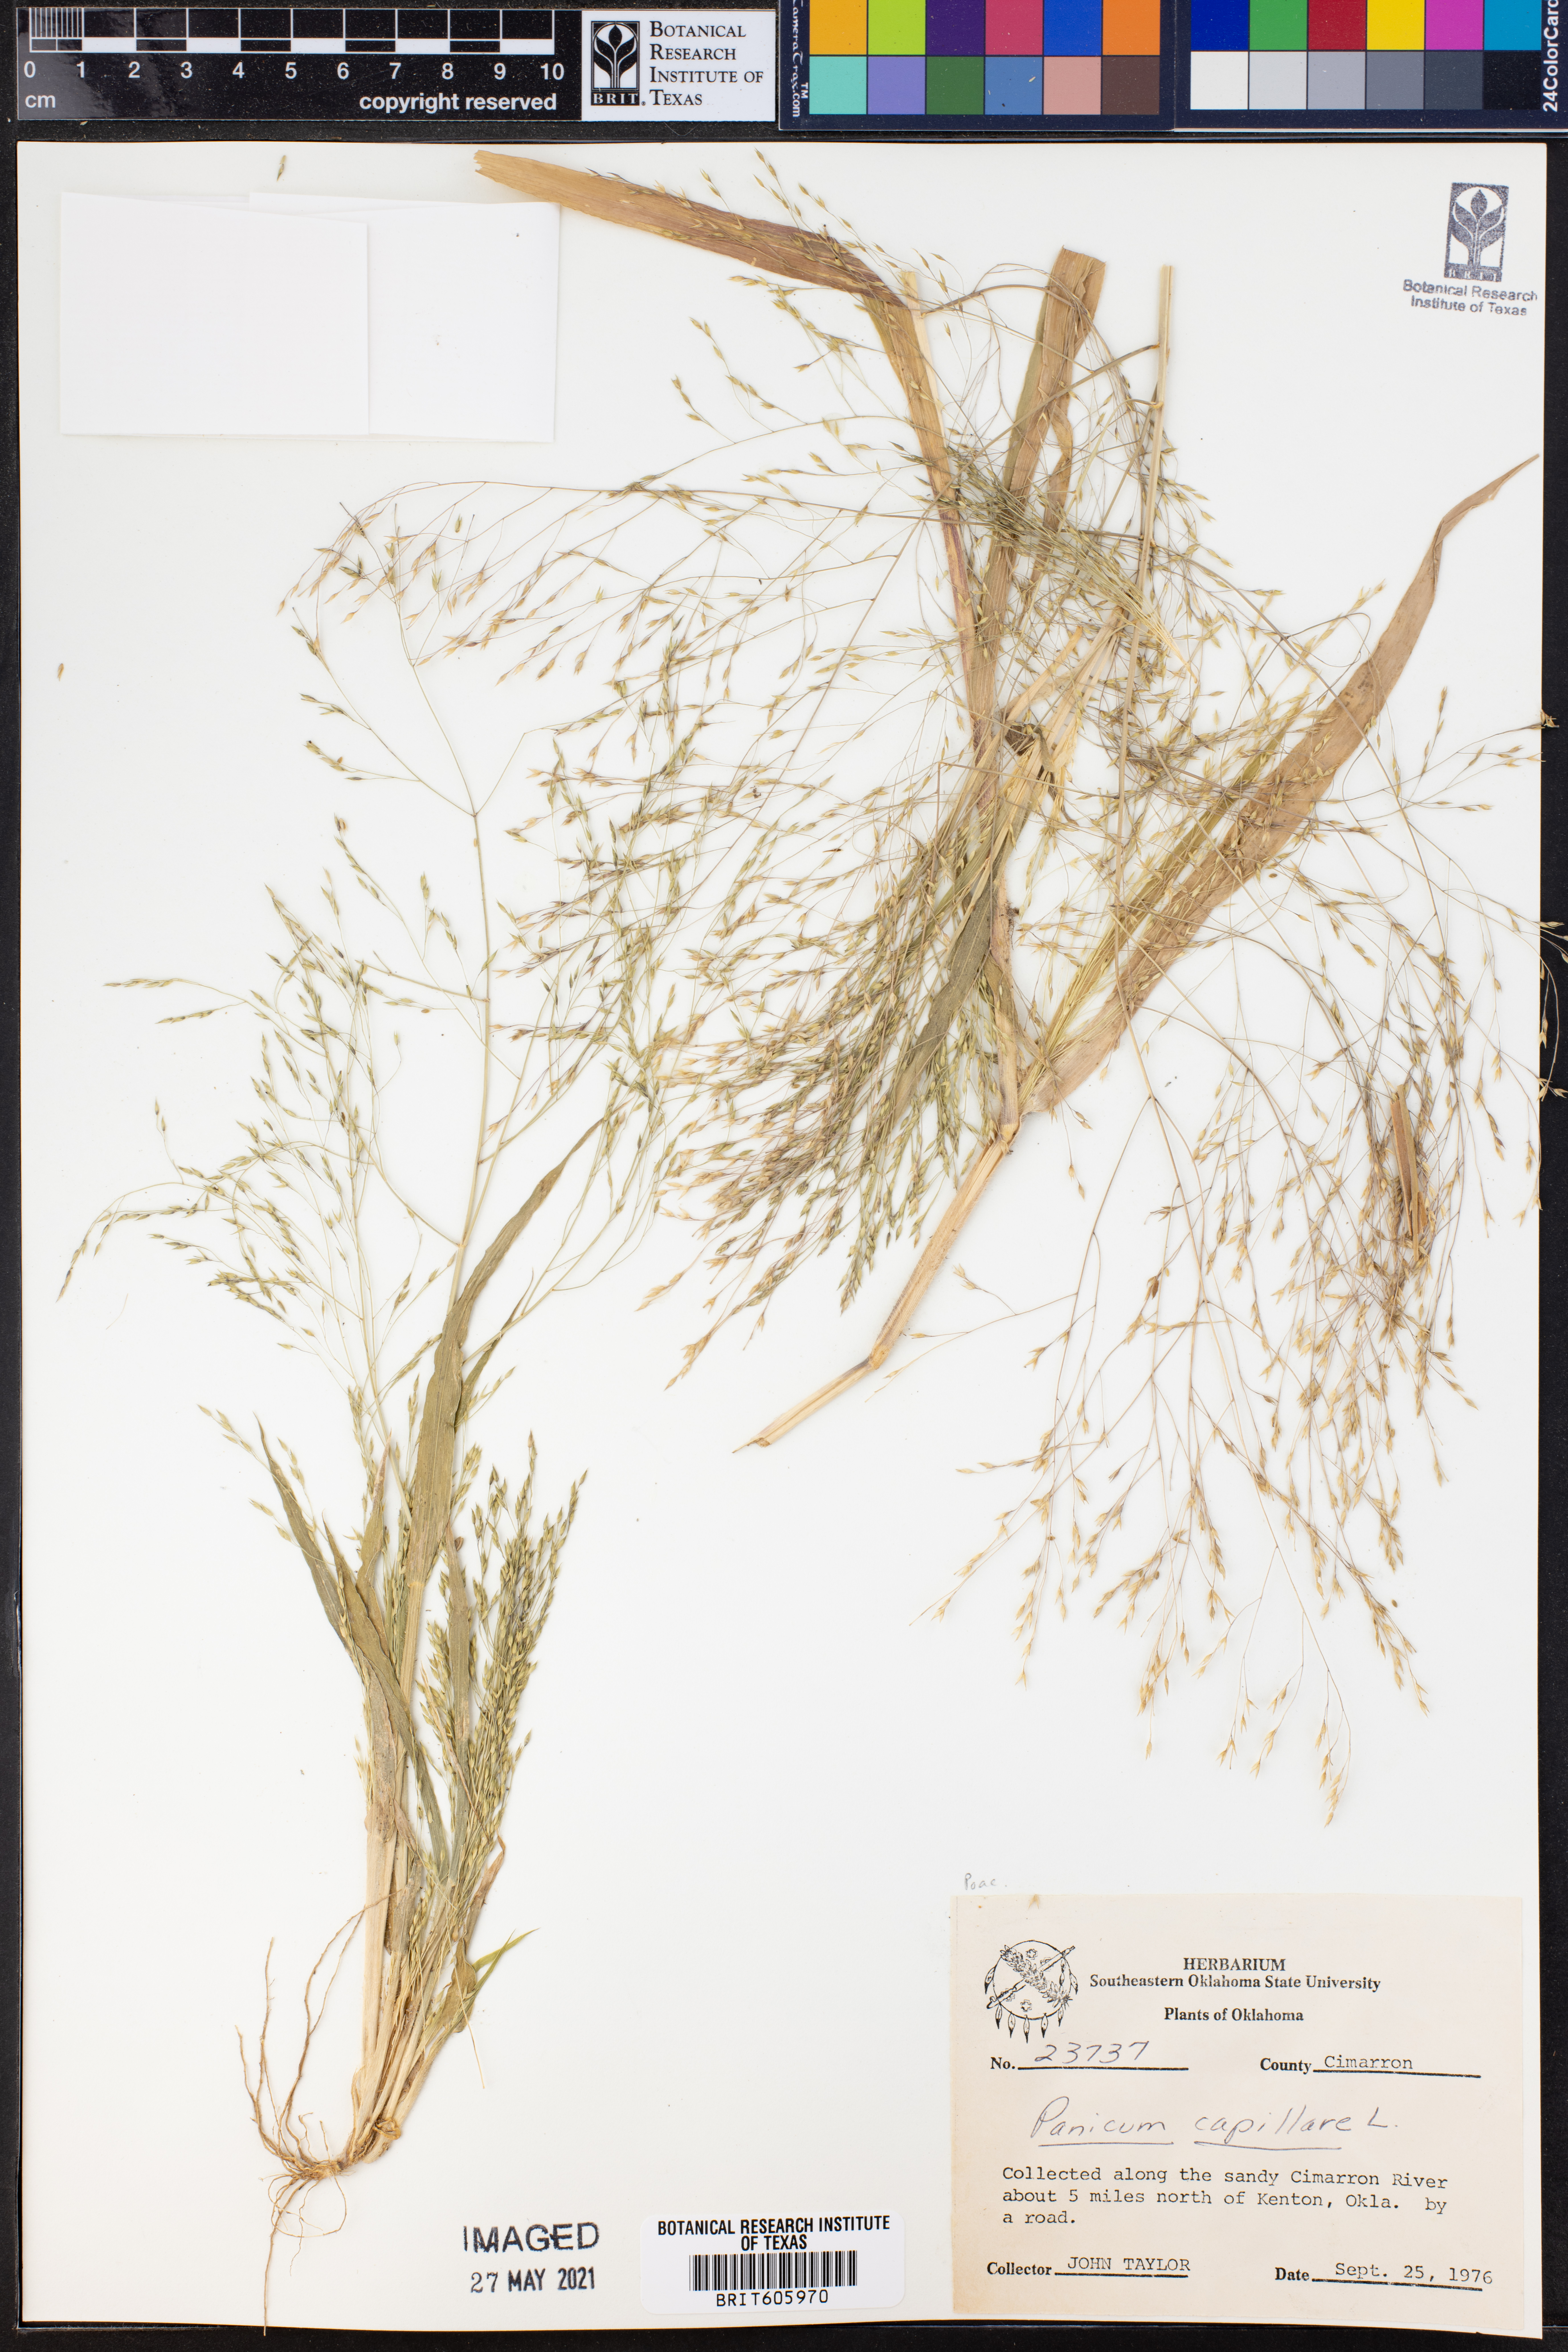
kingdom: Plantae
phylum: Tracheophyta
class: Liliopsida
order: Poales
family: Poaceae
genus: Panicum
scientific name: Panicum capillare
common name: Witch-grass
